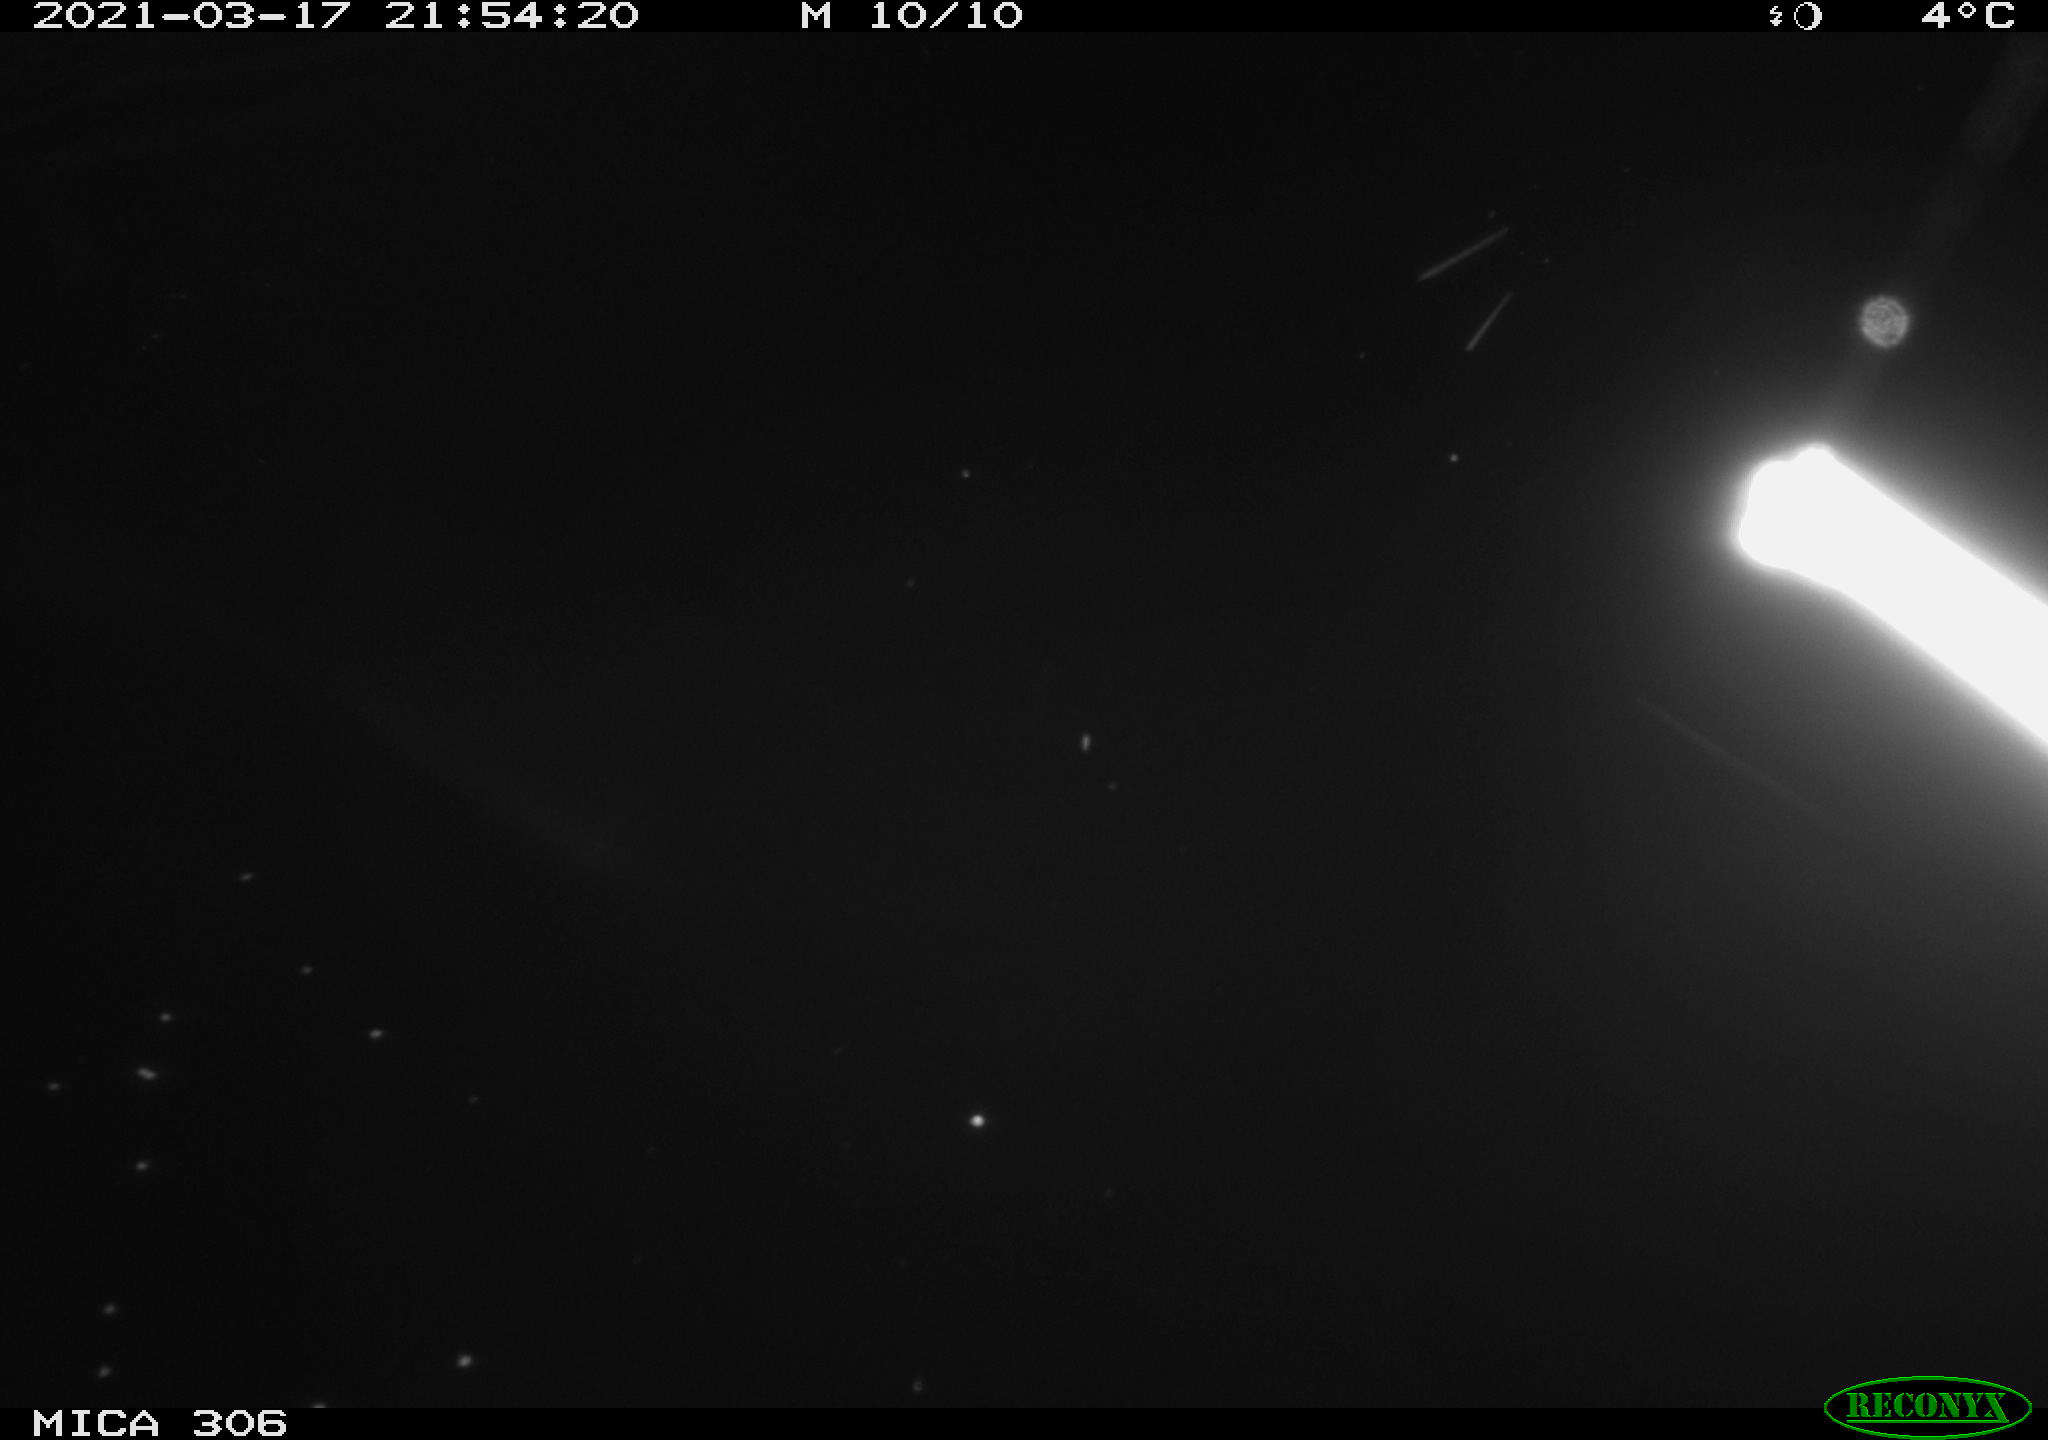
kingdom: Animalia
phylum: Chordata
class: Mammalia
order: Rodentia
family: Cricetidae
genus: Ondatra
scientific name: Ondatra zibethicus
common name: Muskrat
